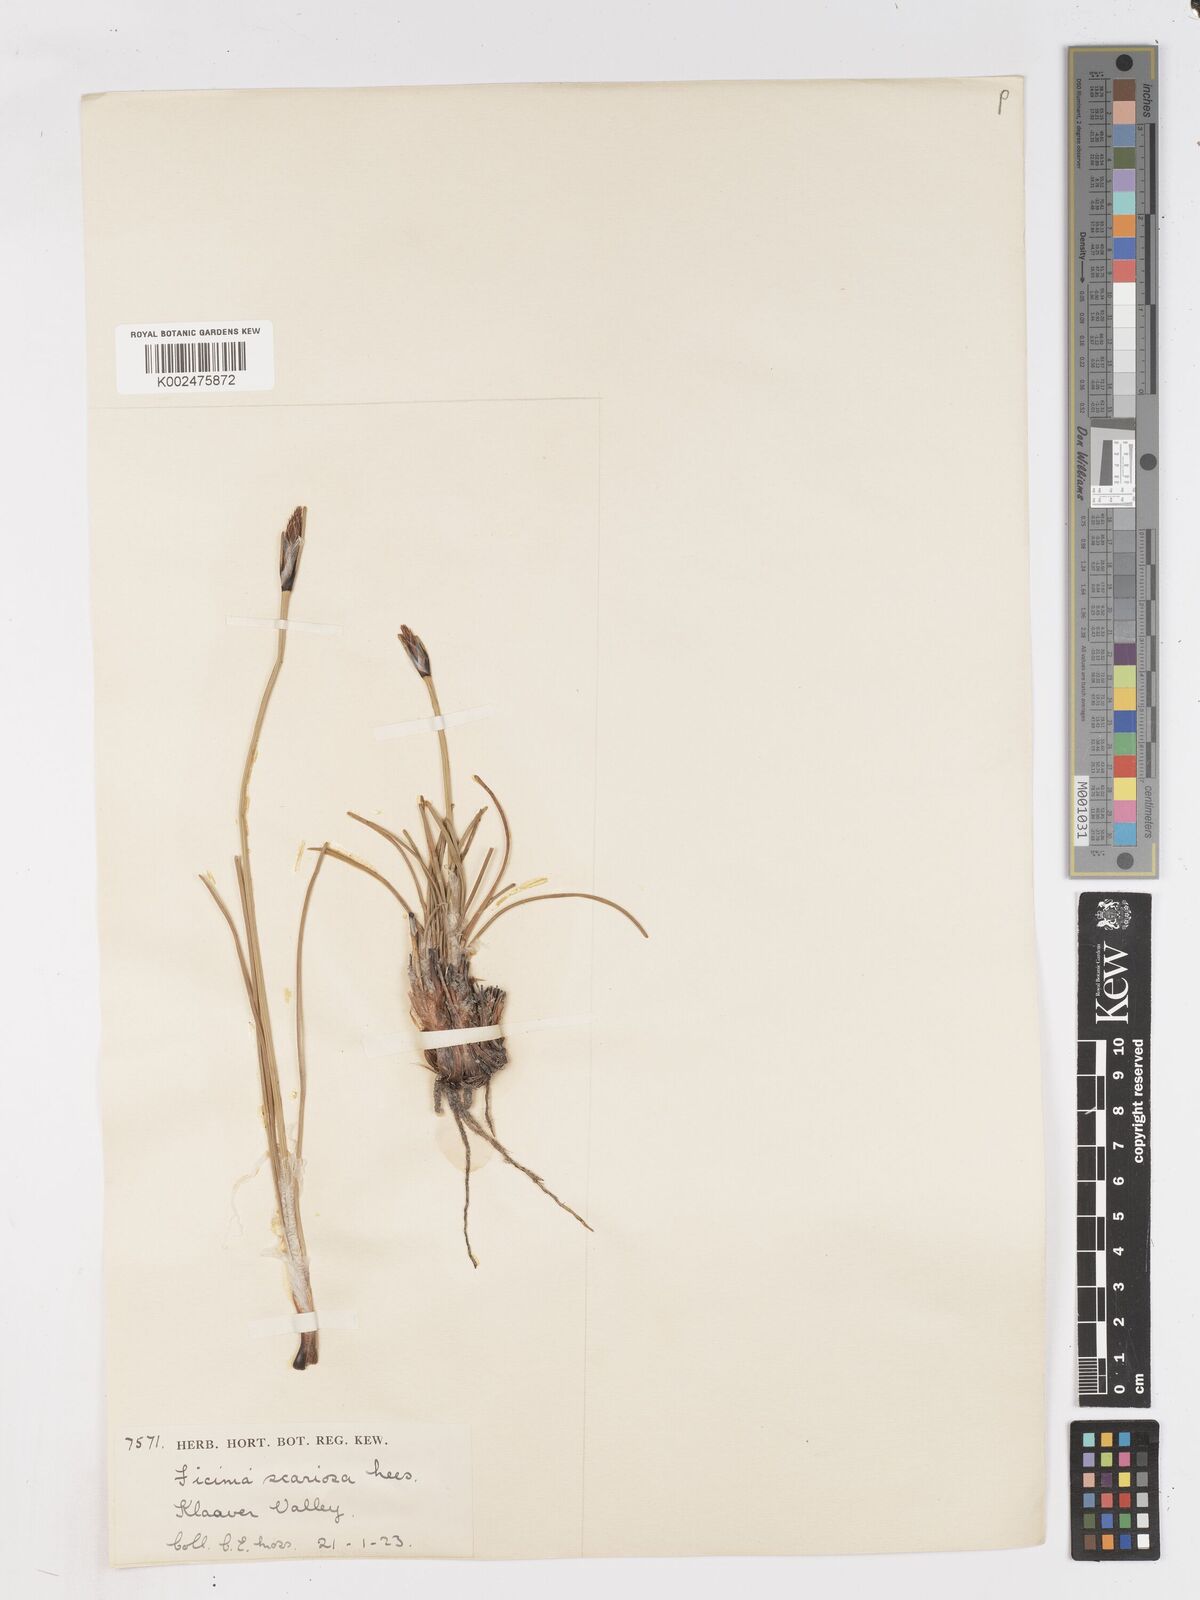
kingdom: Plantae
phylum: Tracheophyta
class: Liliopsida
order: Poales
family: Cyperaceae
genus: Ficinia
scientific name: Ficinia deusta
